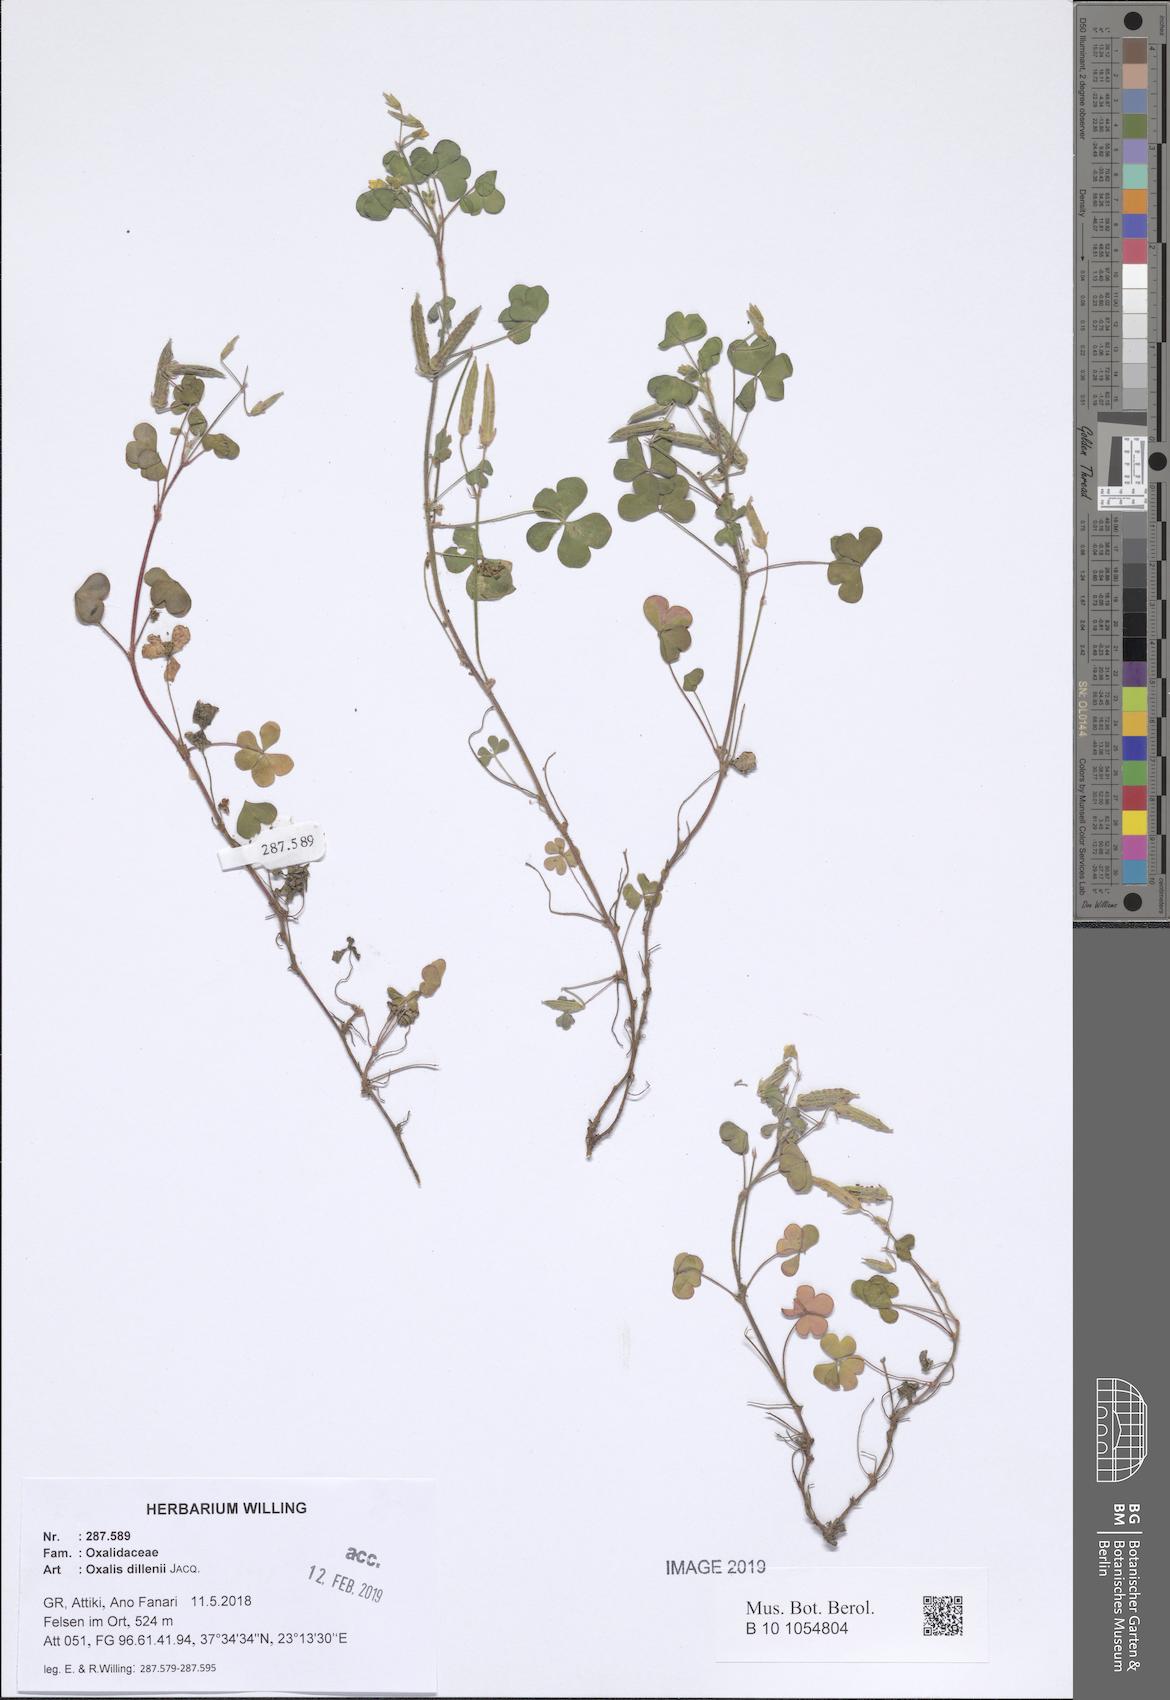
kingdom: Plantae
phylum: Tracheophyta
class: Magnoliopsida
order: Oxalidales
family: Oxalidaceae
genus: Oxalis
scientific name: Oxalis dillenii
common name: Sussex yellow-sorrel
